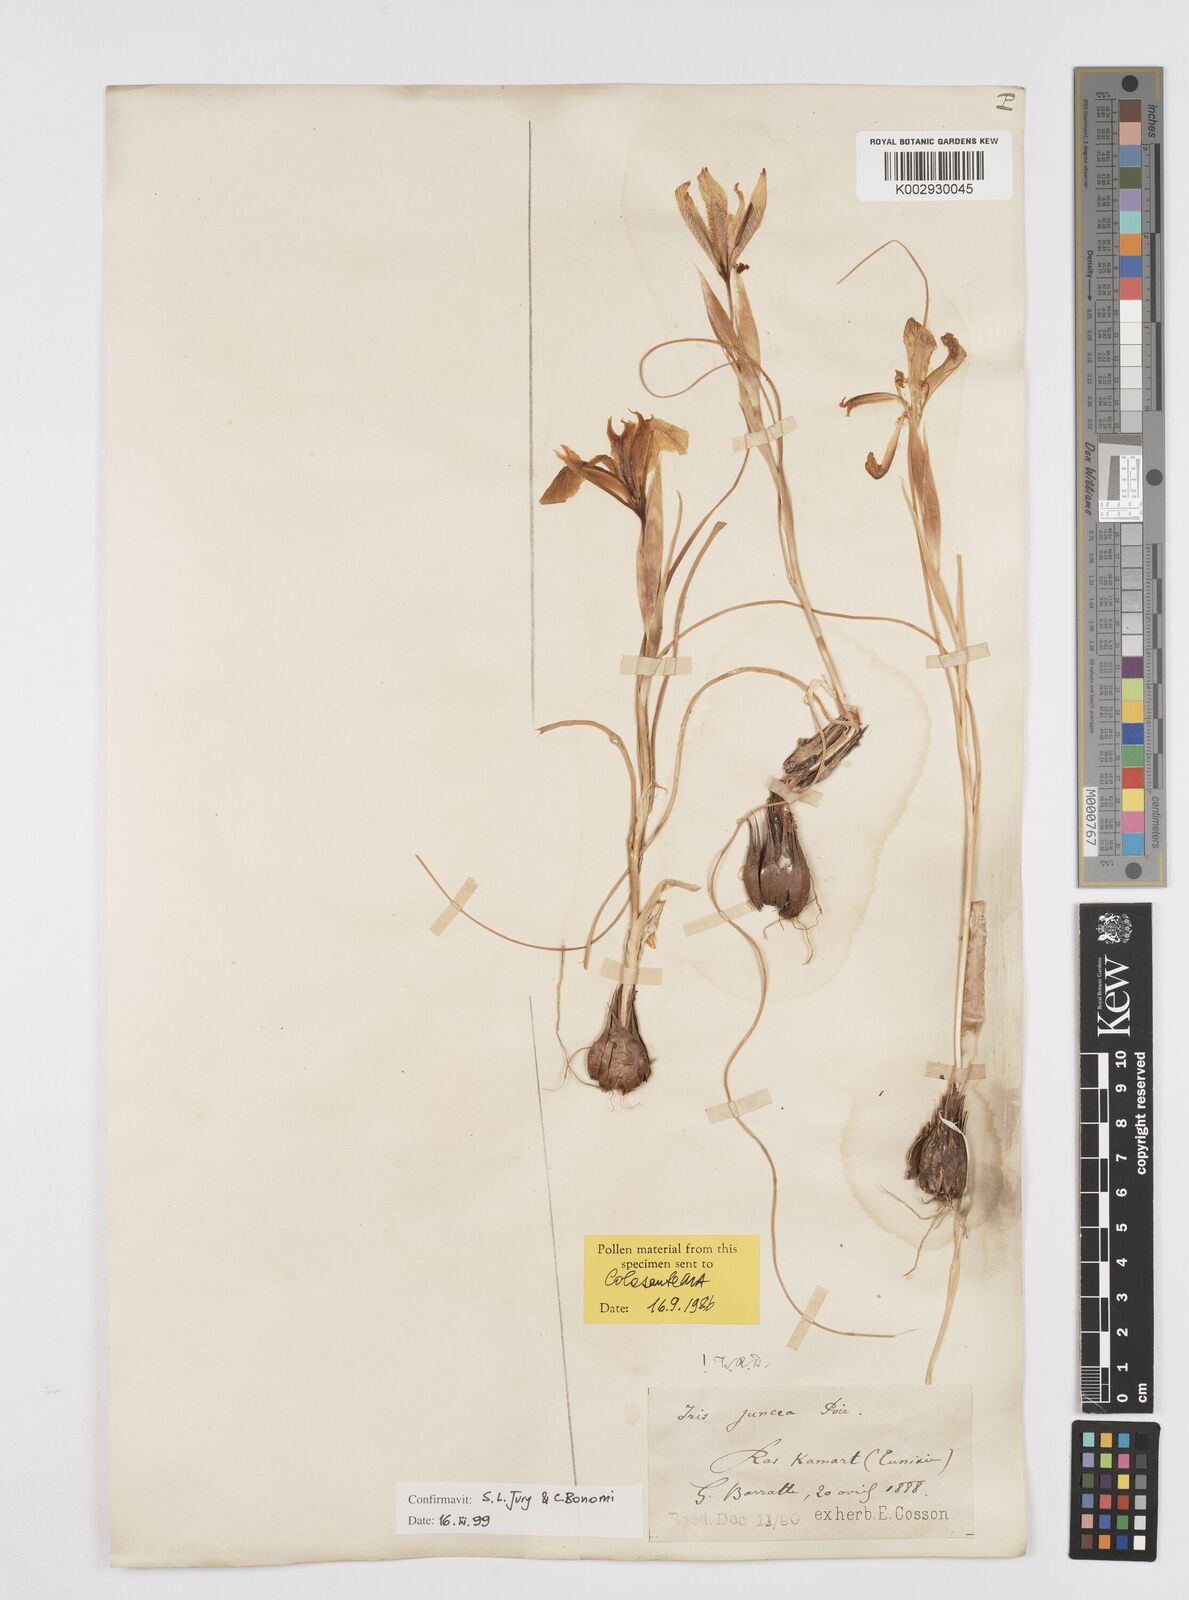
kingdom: Plantae
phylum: Tracheophyta
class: Liliopsida
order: Asparagales
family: Iridaceae
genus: Iris
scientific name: Iris juncea
